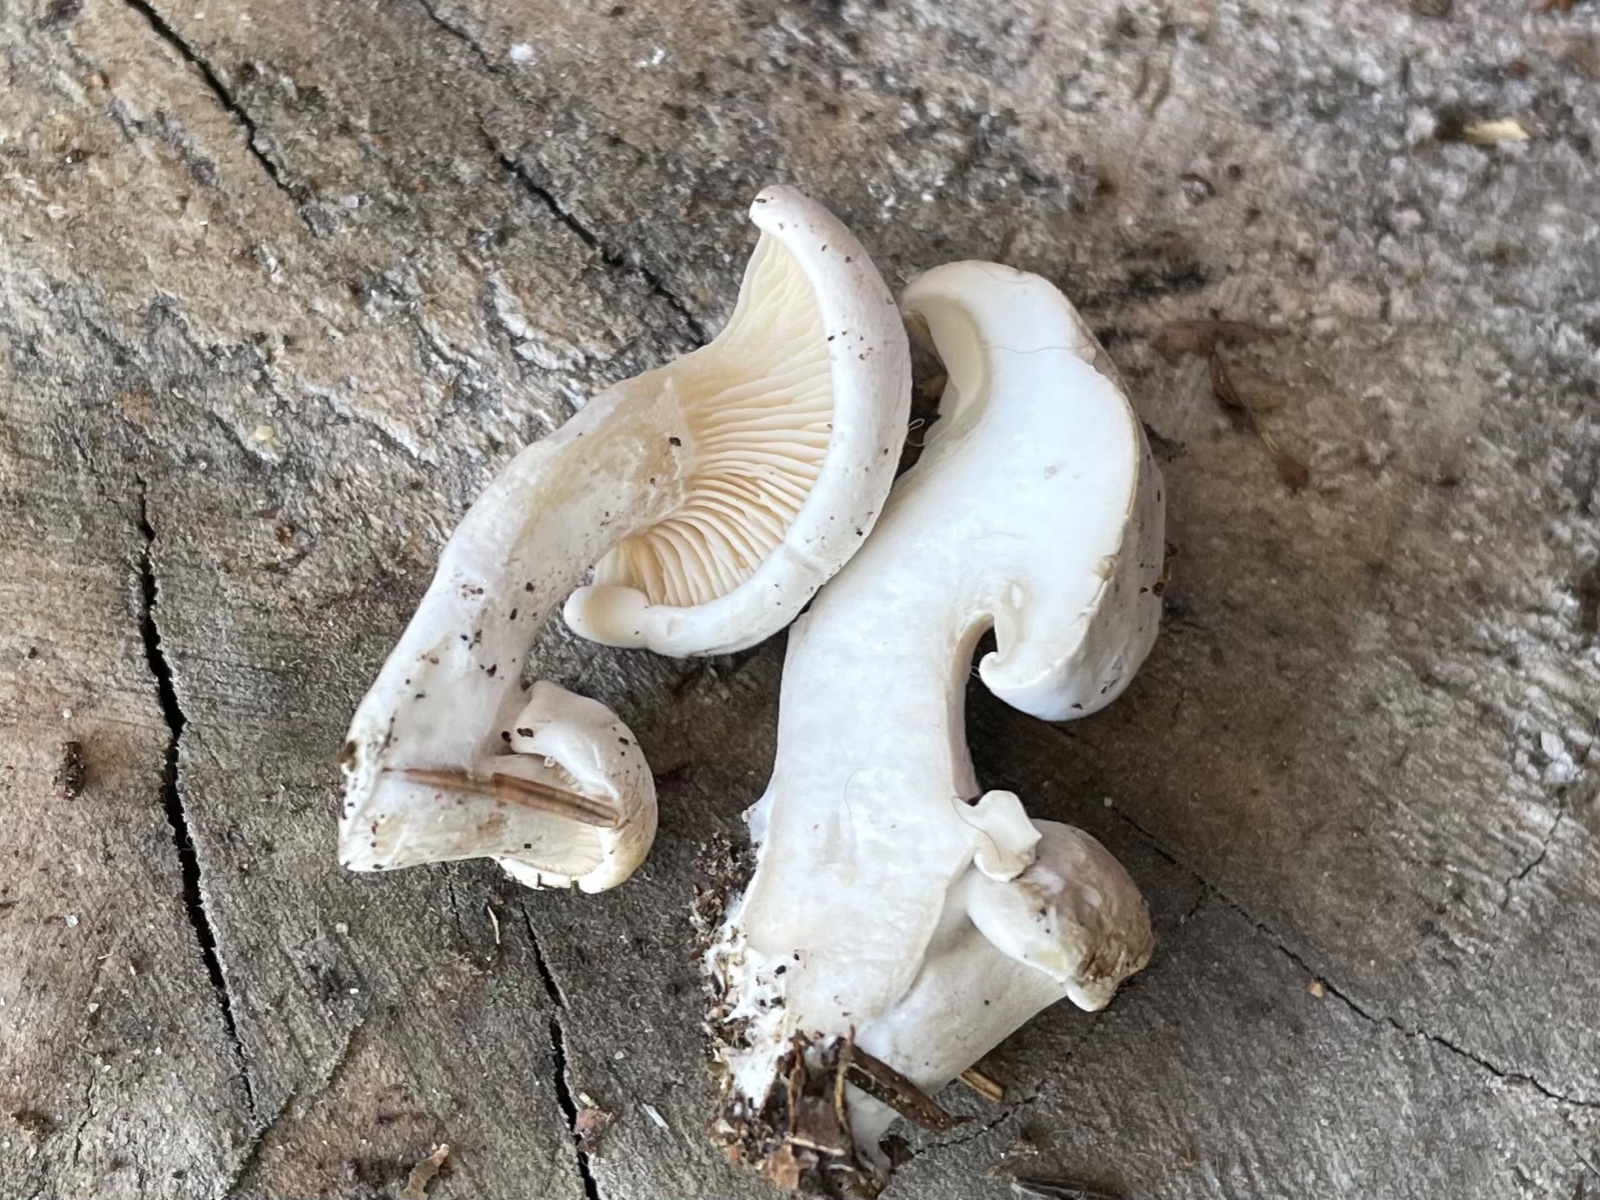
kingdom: Fungi
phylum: Basidiomycota
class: Agaricomycetes
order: Agaricales
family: Entolomataceae
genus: Clitopilus
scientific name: Clitopilus prunulus
